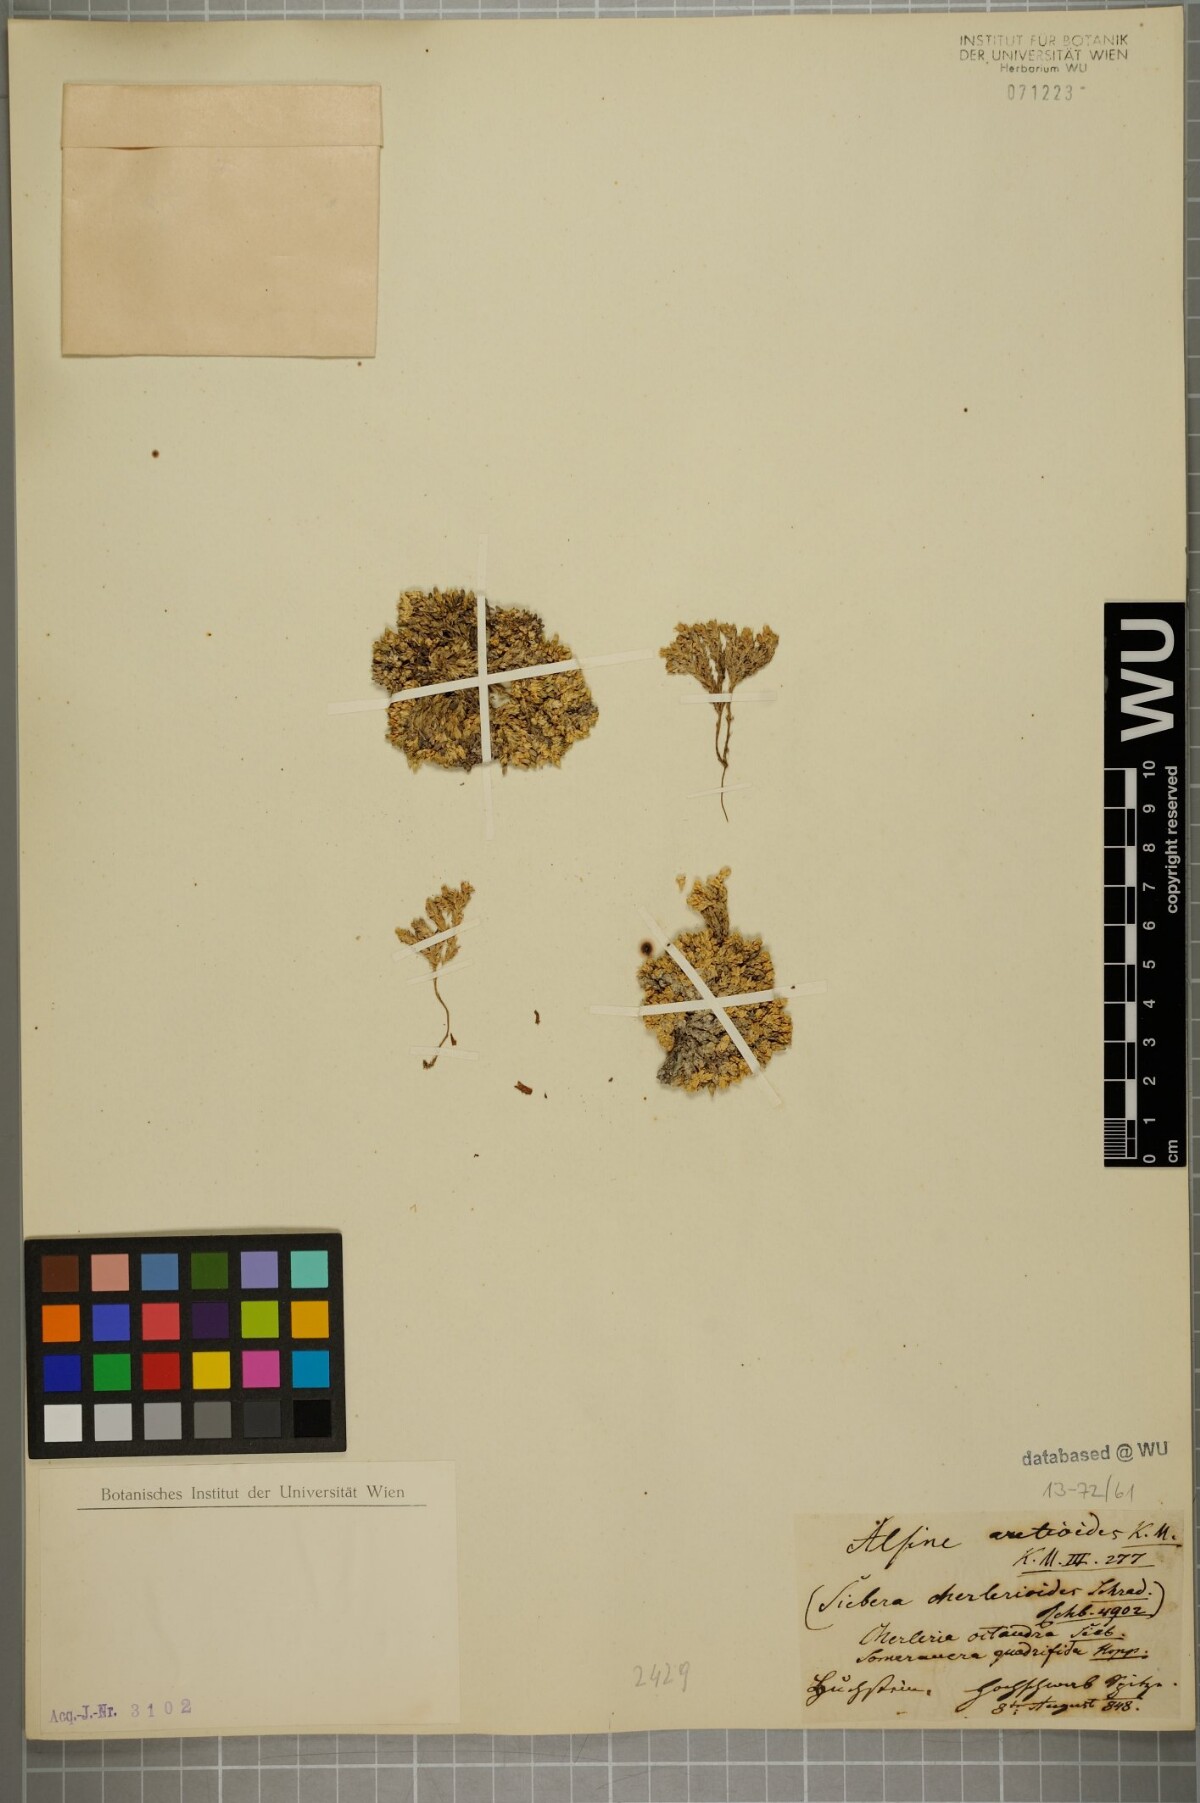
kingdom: Plantae
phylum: Tracheophyta
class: Magnoliopsida
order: Caryophyllales
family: Caryophyllaceae
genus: Facchinia
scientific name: Facchinia cherlerioides
